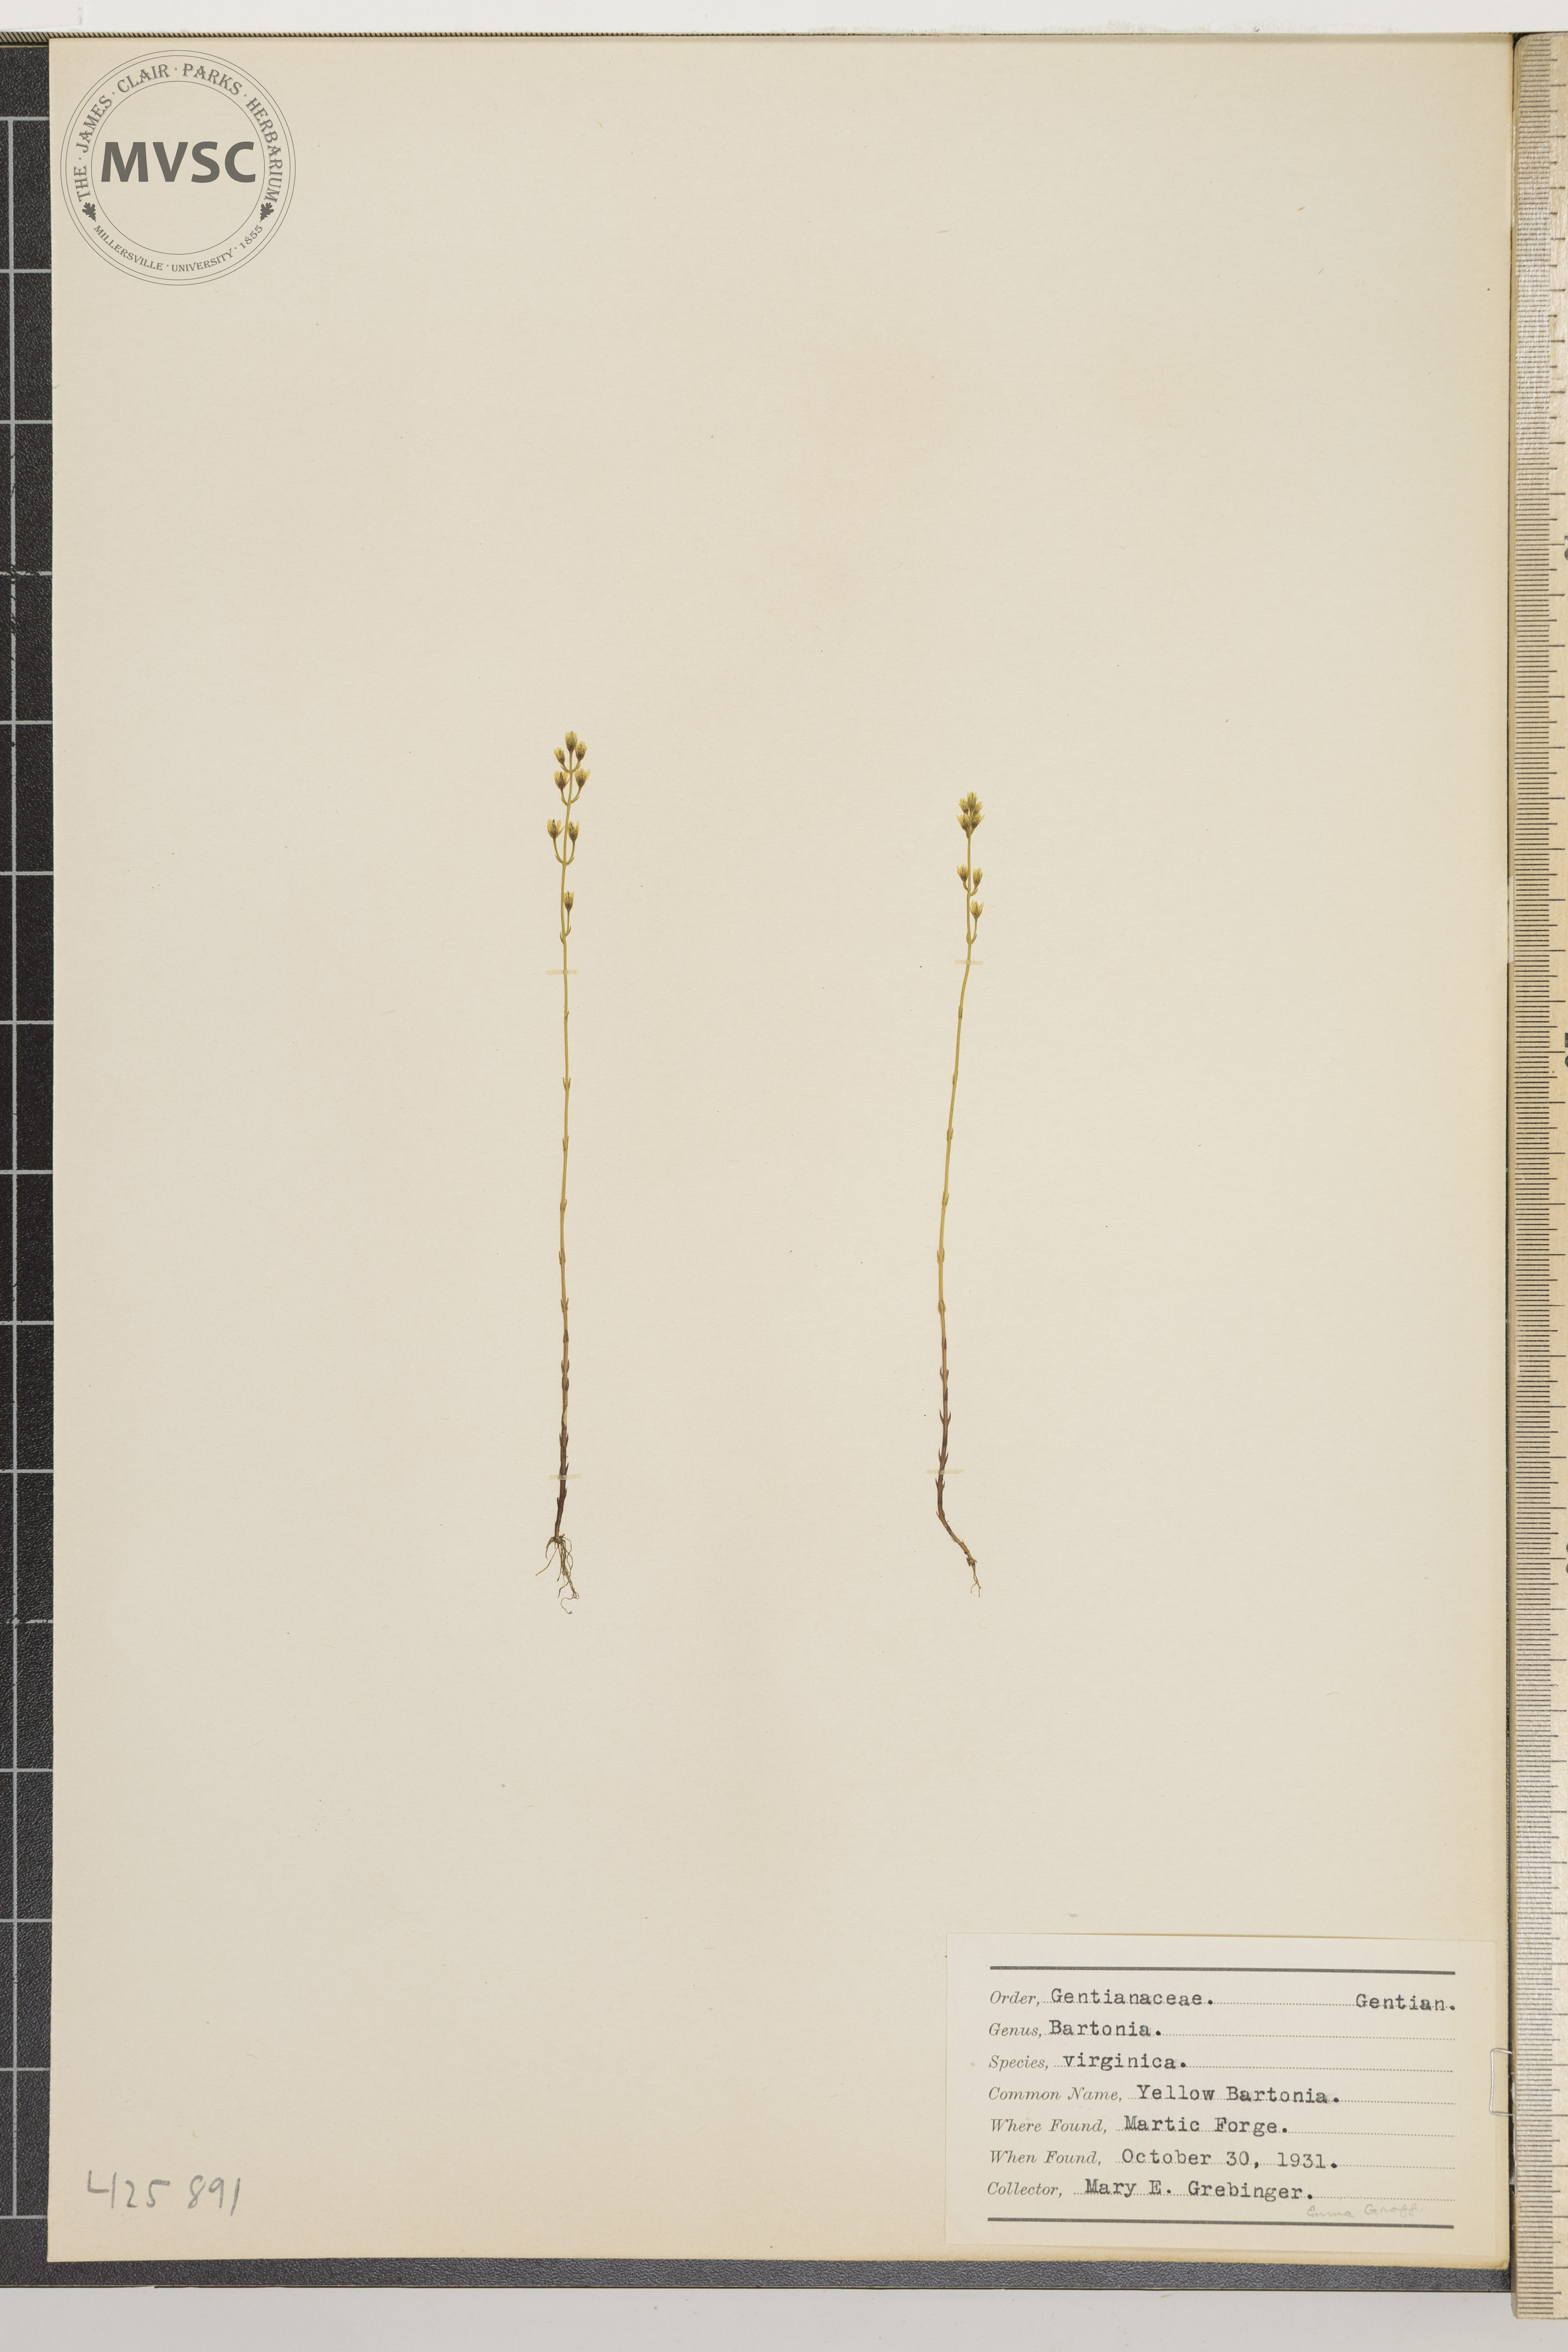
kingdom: Plantae
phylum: Tracheophyta
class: Magnoliopsida
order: Gentianales
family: Gentianaceae
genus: Bartonia
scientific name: Bartonia virginica
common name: Yellow Bartonia
